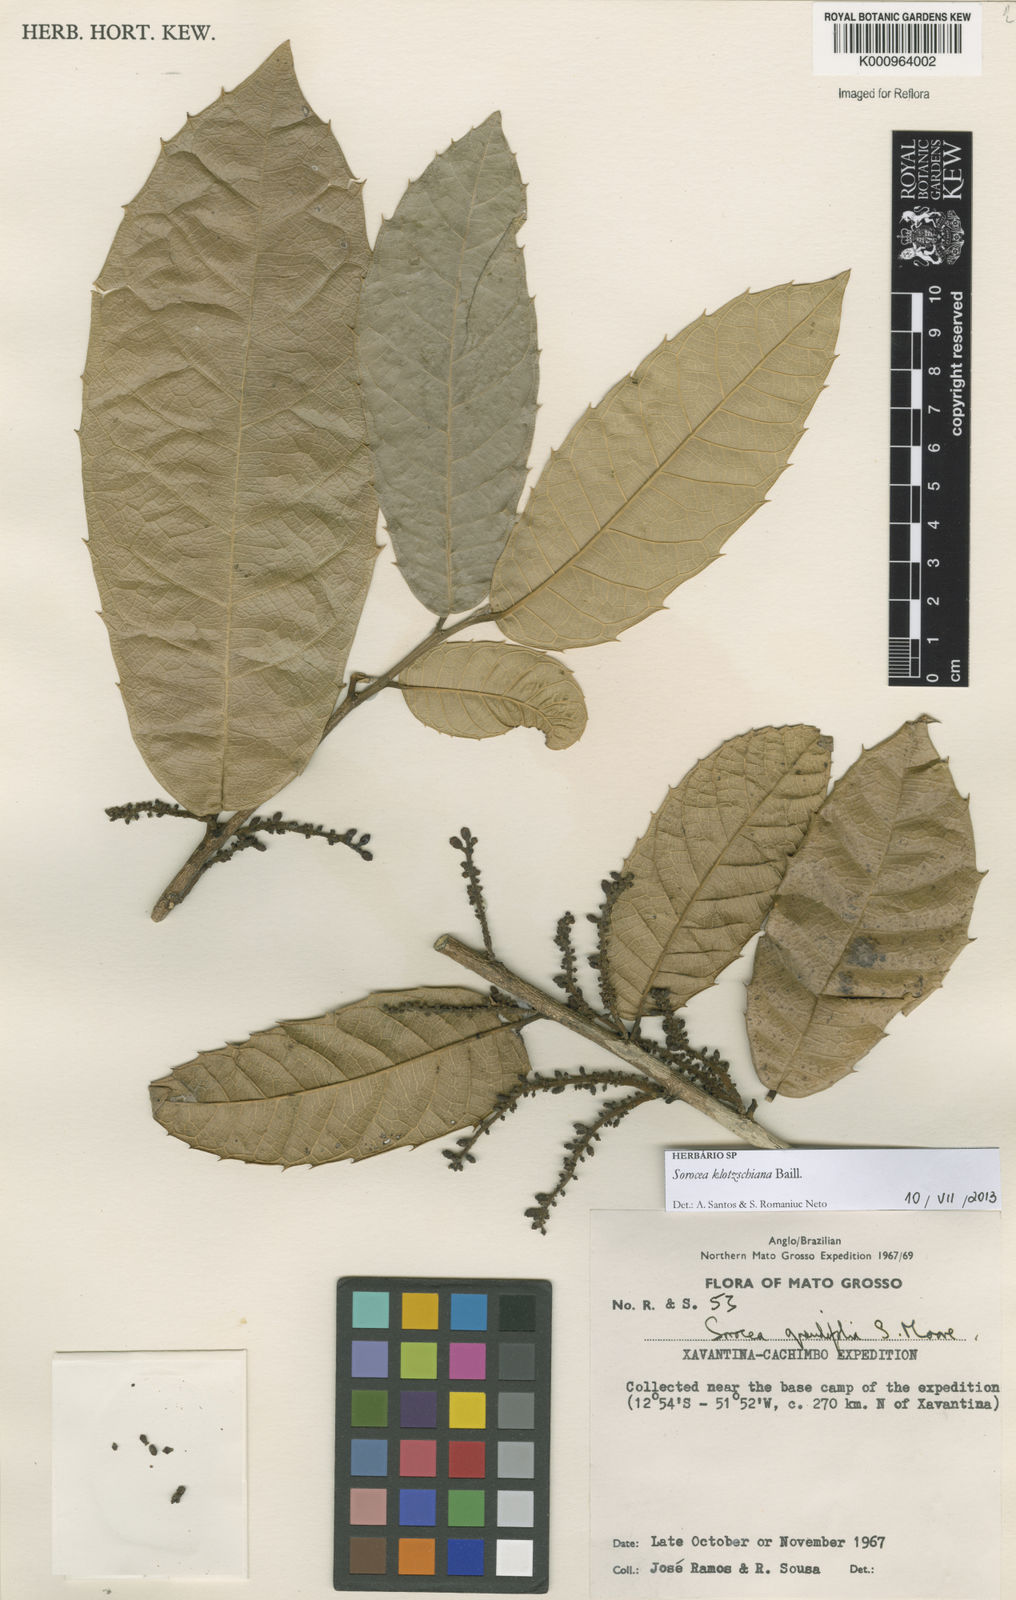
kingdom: Plantae
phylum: Tracheophyta
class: Magnoliopsida
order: Rosales
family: Moraceae
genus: Sorocea
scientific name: Sorocea guilleminiana
